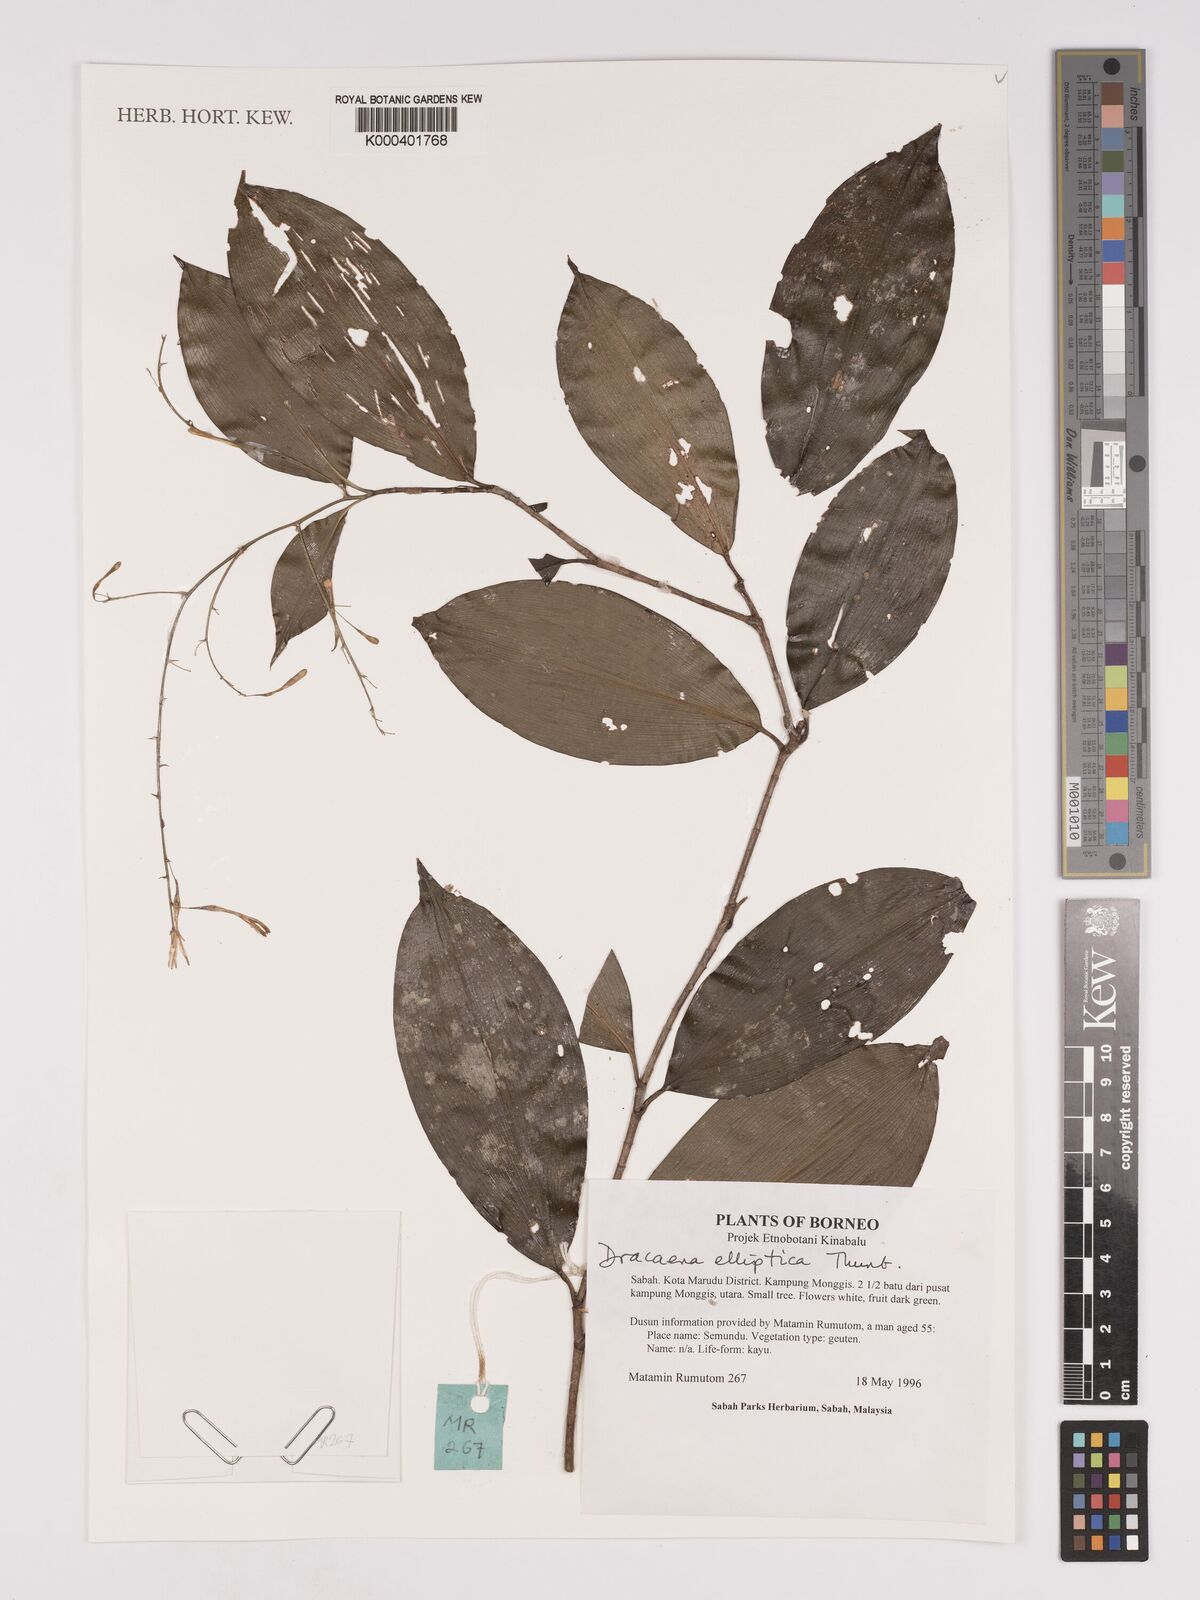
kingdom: Plantae
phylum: Tracheophyta
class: Liliopsida
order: Asparagales
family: Asparagaceae
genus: Dracaena
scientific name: Dracaena elliptica
